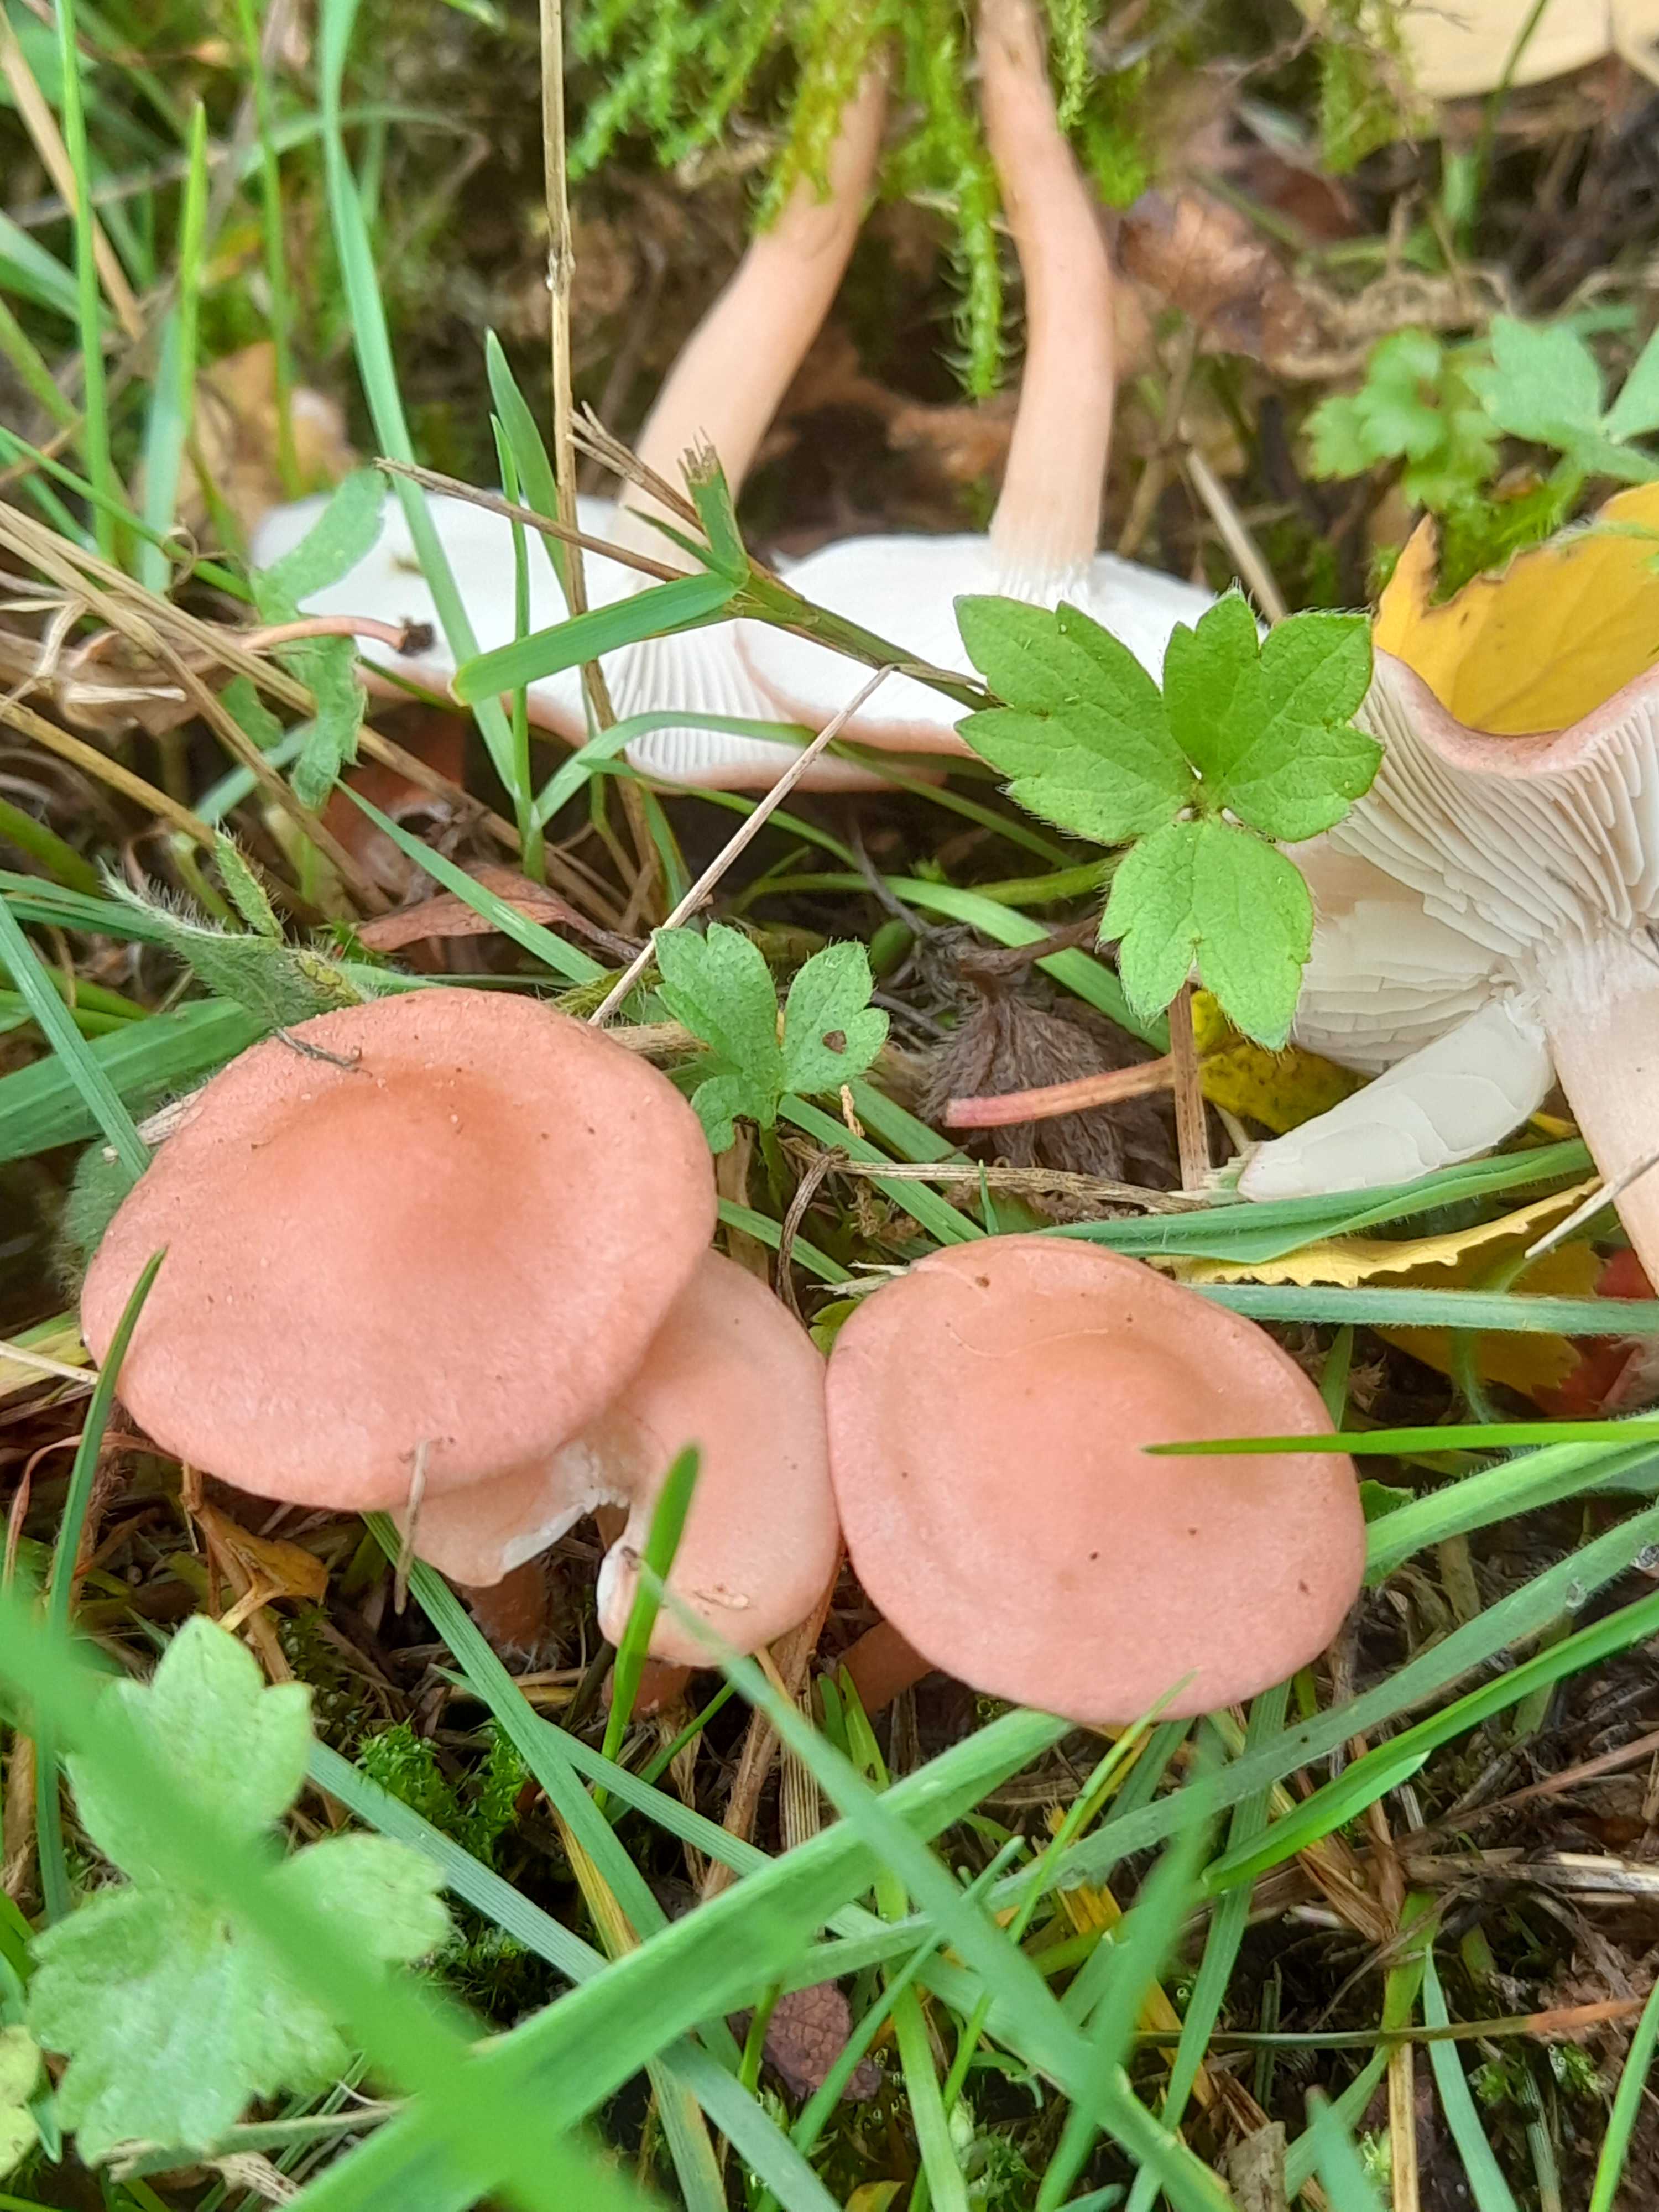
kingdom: Fungi
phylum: Basidiomycota
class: Agaricomycetes
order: Agaricales
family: Lyophyllaceae
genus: Calocybe
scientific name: Calocybe carnea
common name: rosa fagerhat
